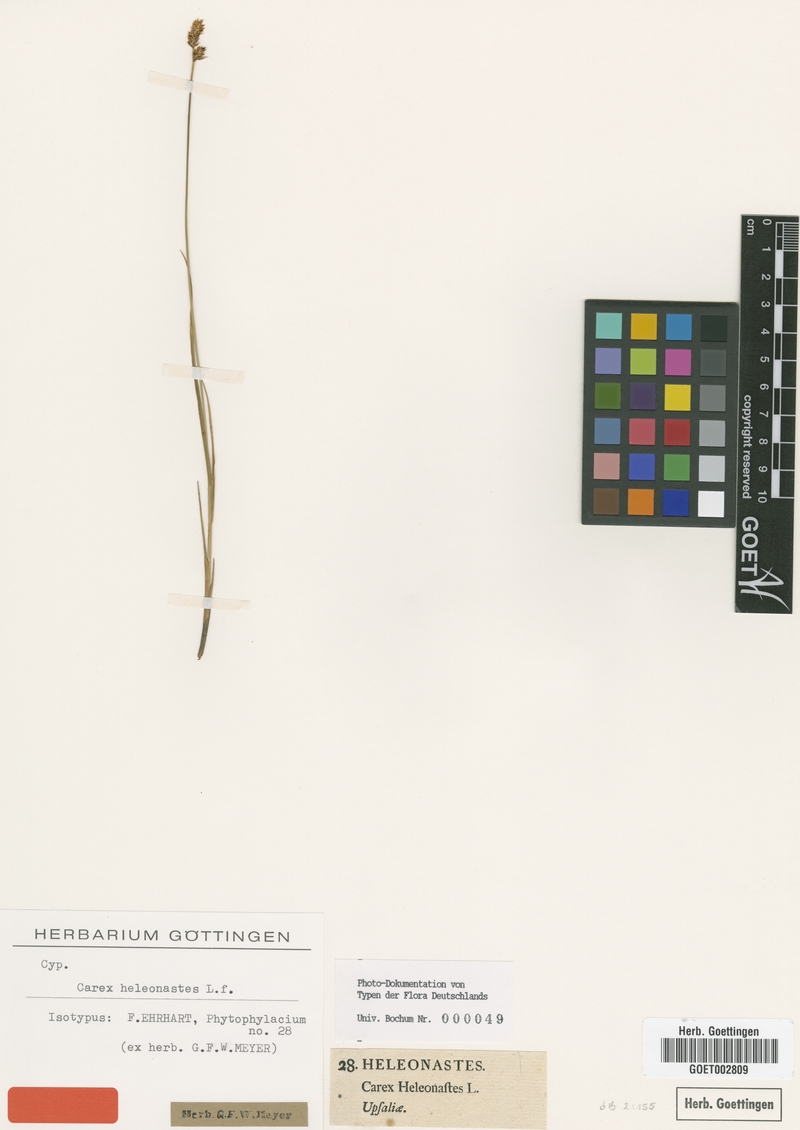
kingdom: Plantae
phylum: Tracheophyta
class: Liliopsida
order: Poales
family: Cyperaceae
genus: Carex
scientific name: Carex heleonastes
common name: Hudson bay sedge
